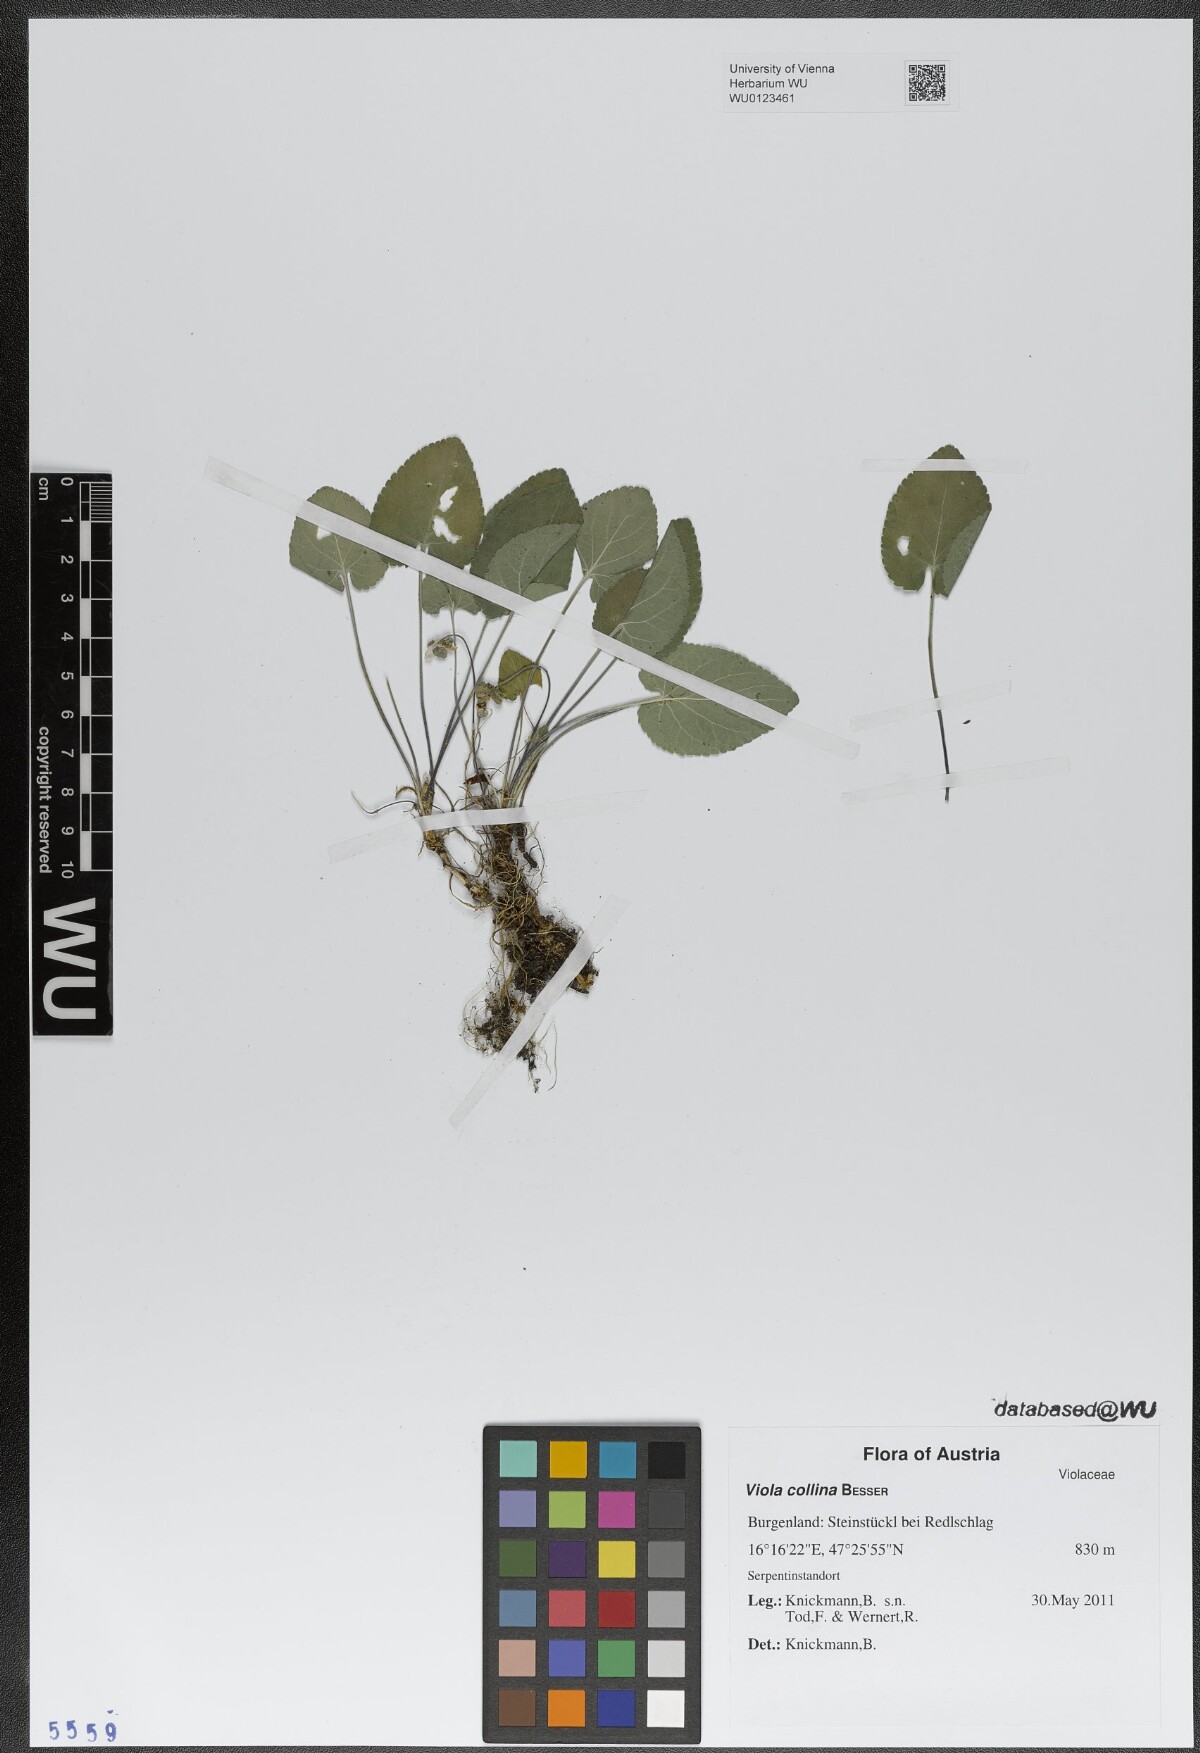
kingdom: Plantae
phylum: Tracheophyta
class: Magnoliopsida
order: Malpighiales
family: Violaceae
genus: Viola
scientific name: Viola collina
